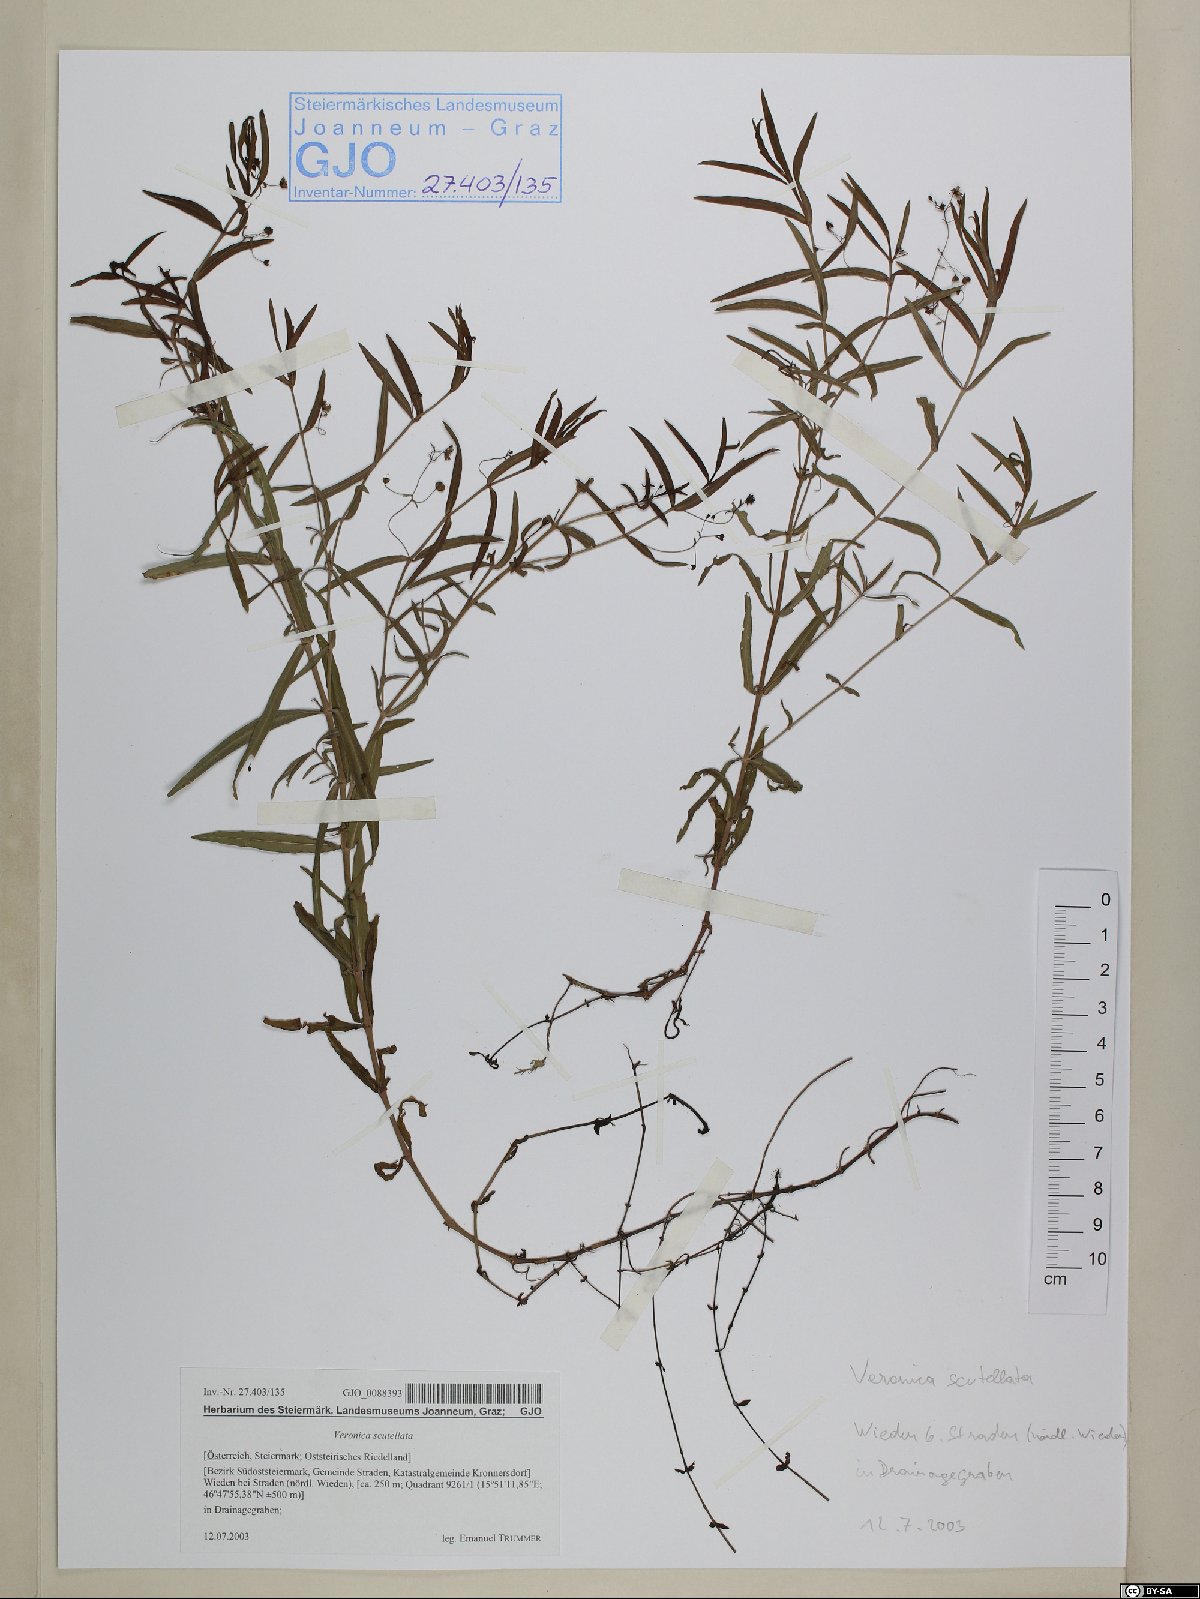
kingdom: Plantae
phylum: Tracheophyta
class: Magnoliopsida
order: Lamiales
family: Plantaginaceae
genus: Veronica
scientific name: Veronica scutellata
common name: Marsh speedwell
